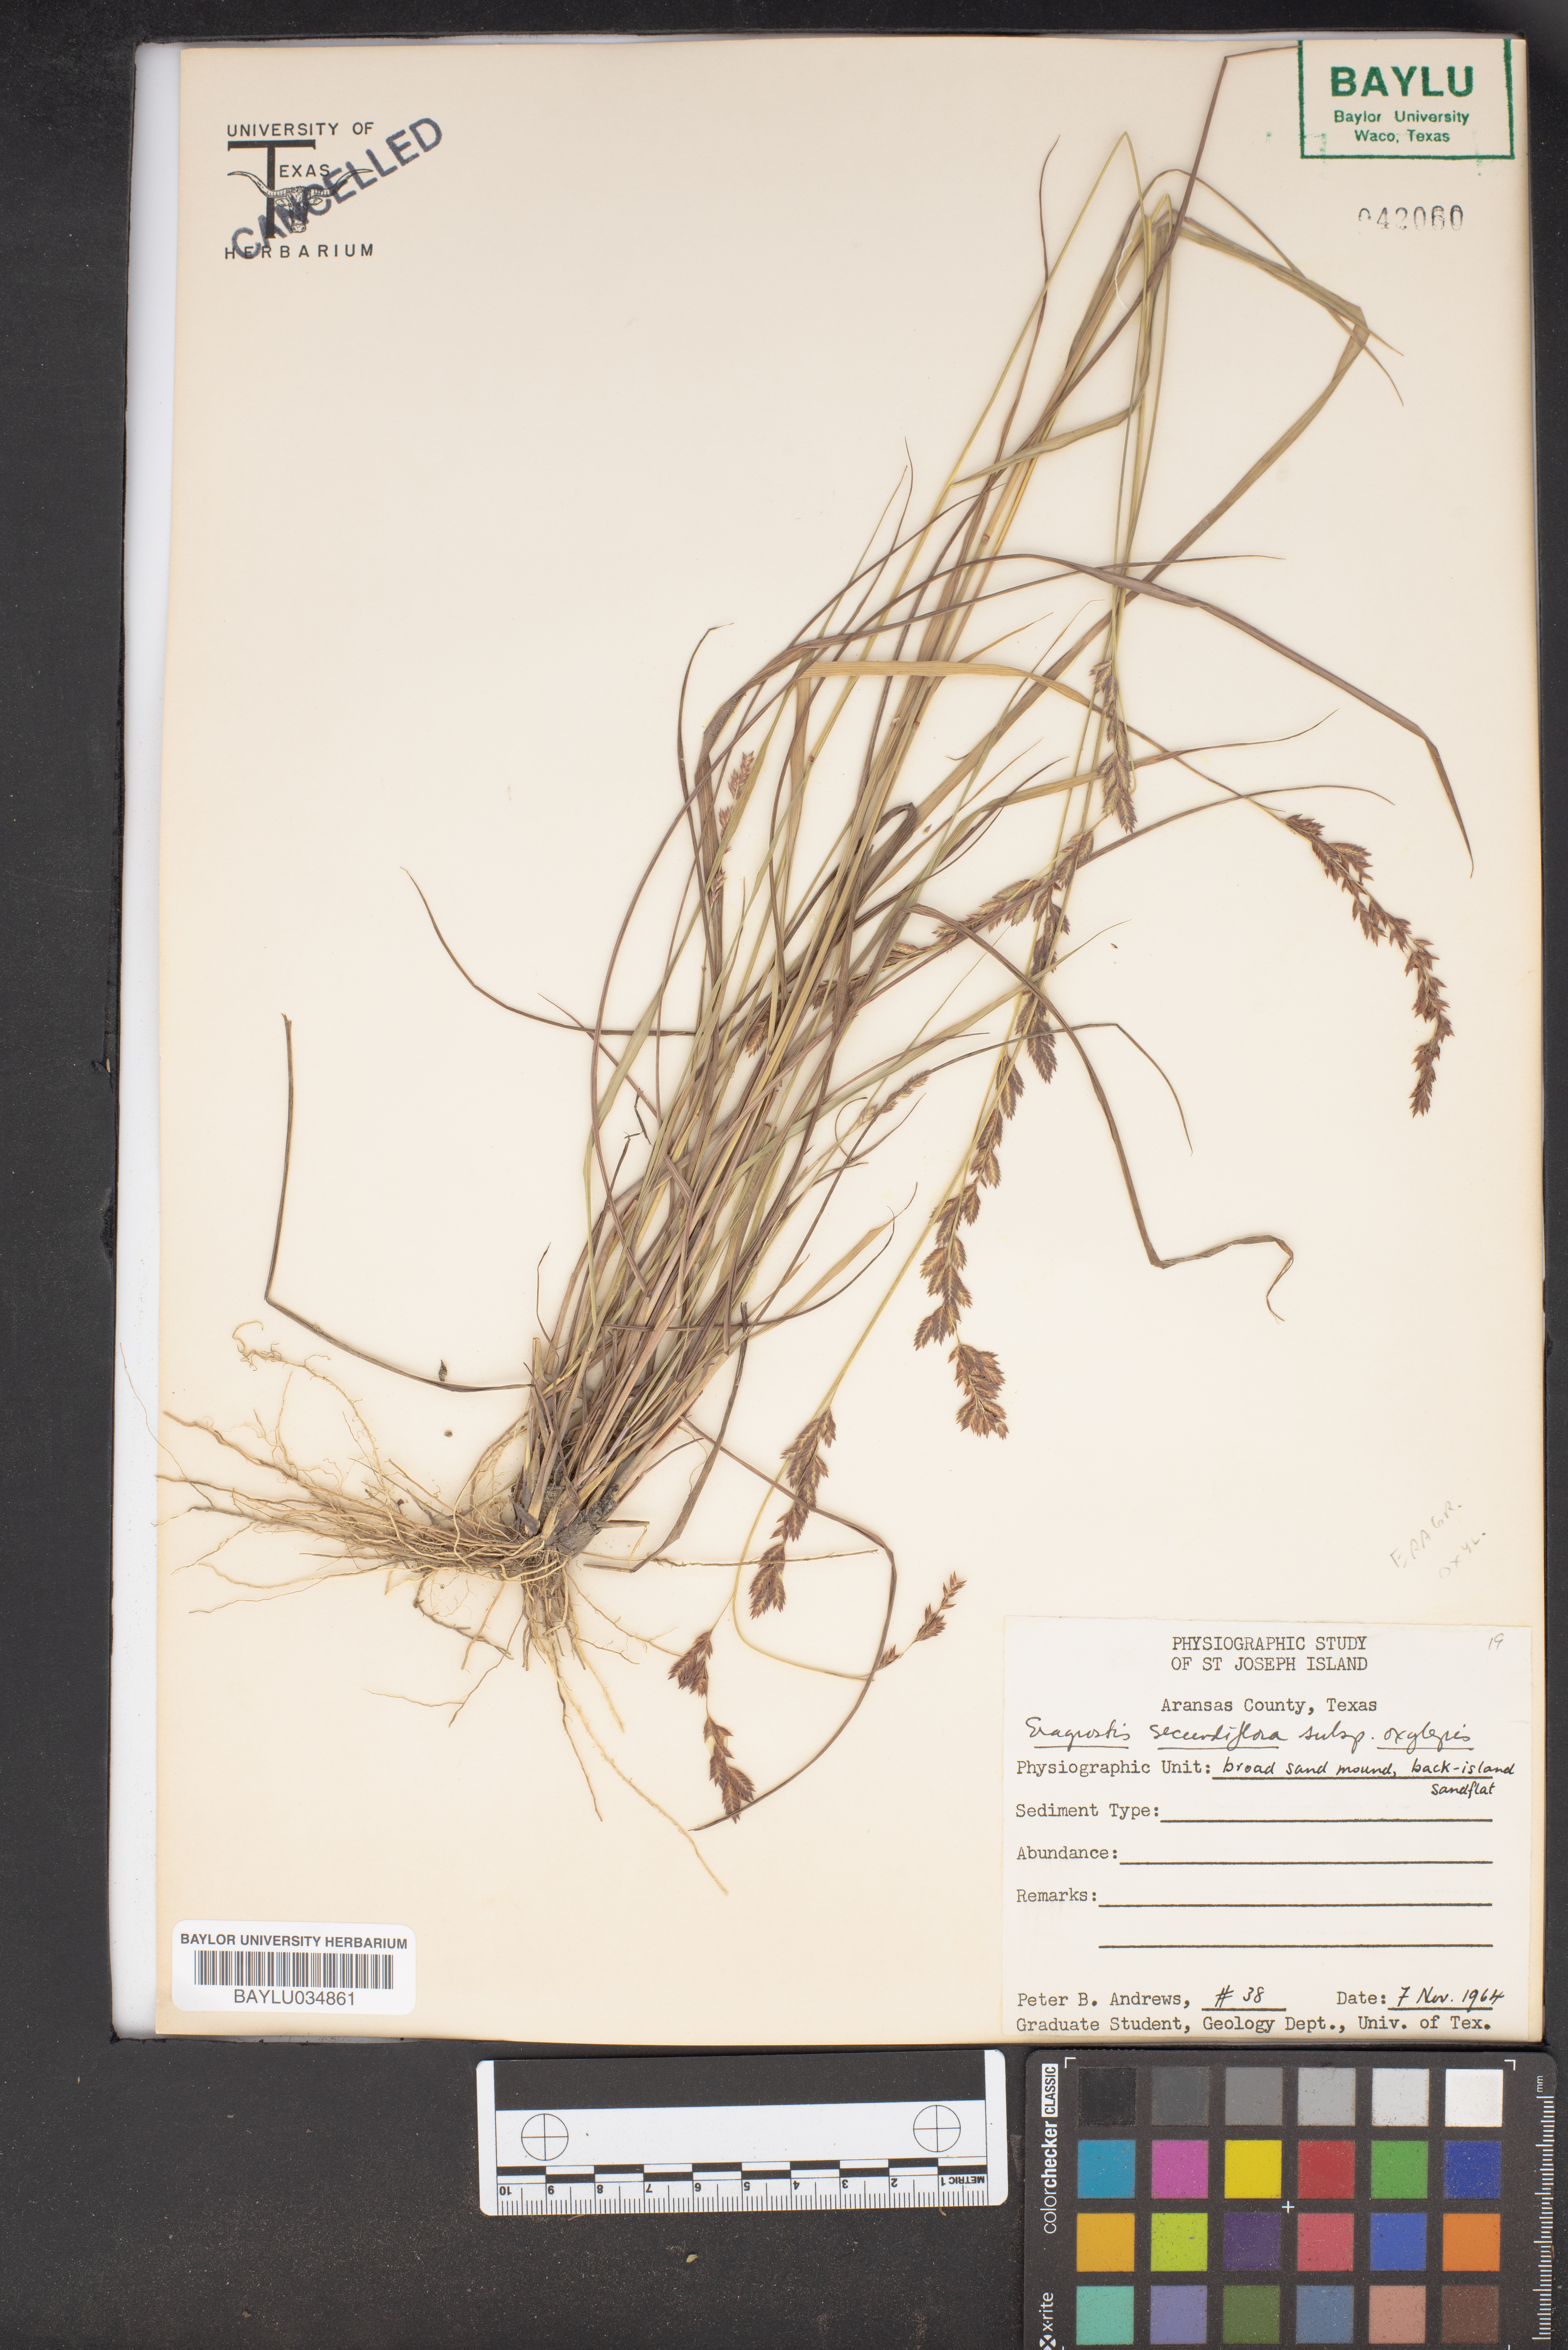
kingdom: Plantae
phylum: Tracheophyta
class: Liliopsida
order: Poales
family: Poaceae
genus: Eragrostis
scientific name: Eragrostis secundiflora
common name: Red love grass
